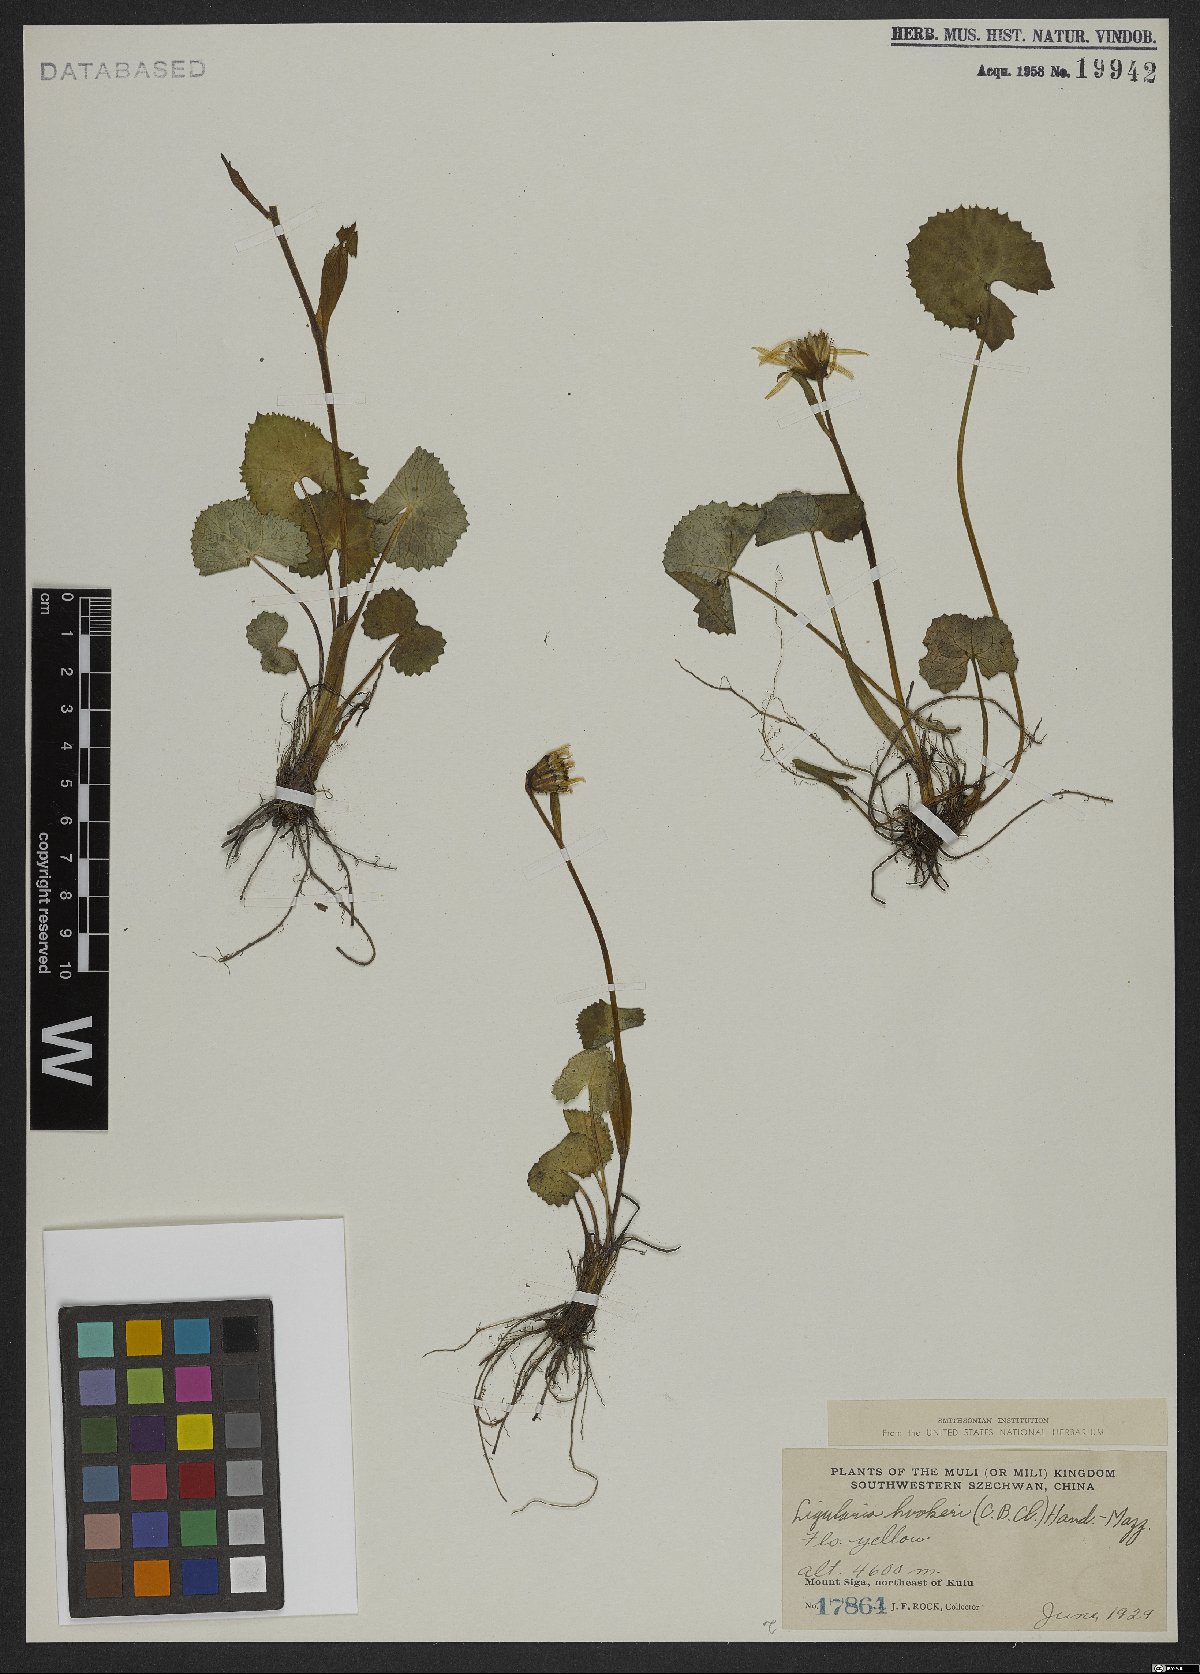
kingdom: Plantae
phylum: Tracheophyta
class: Magnoliopsida
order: Asterales
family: Asteraceae
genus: Ligularia
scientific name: Ligularia hookeri
